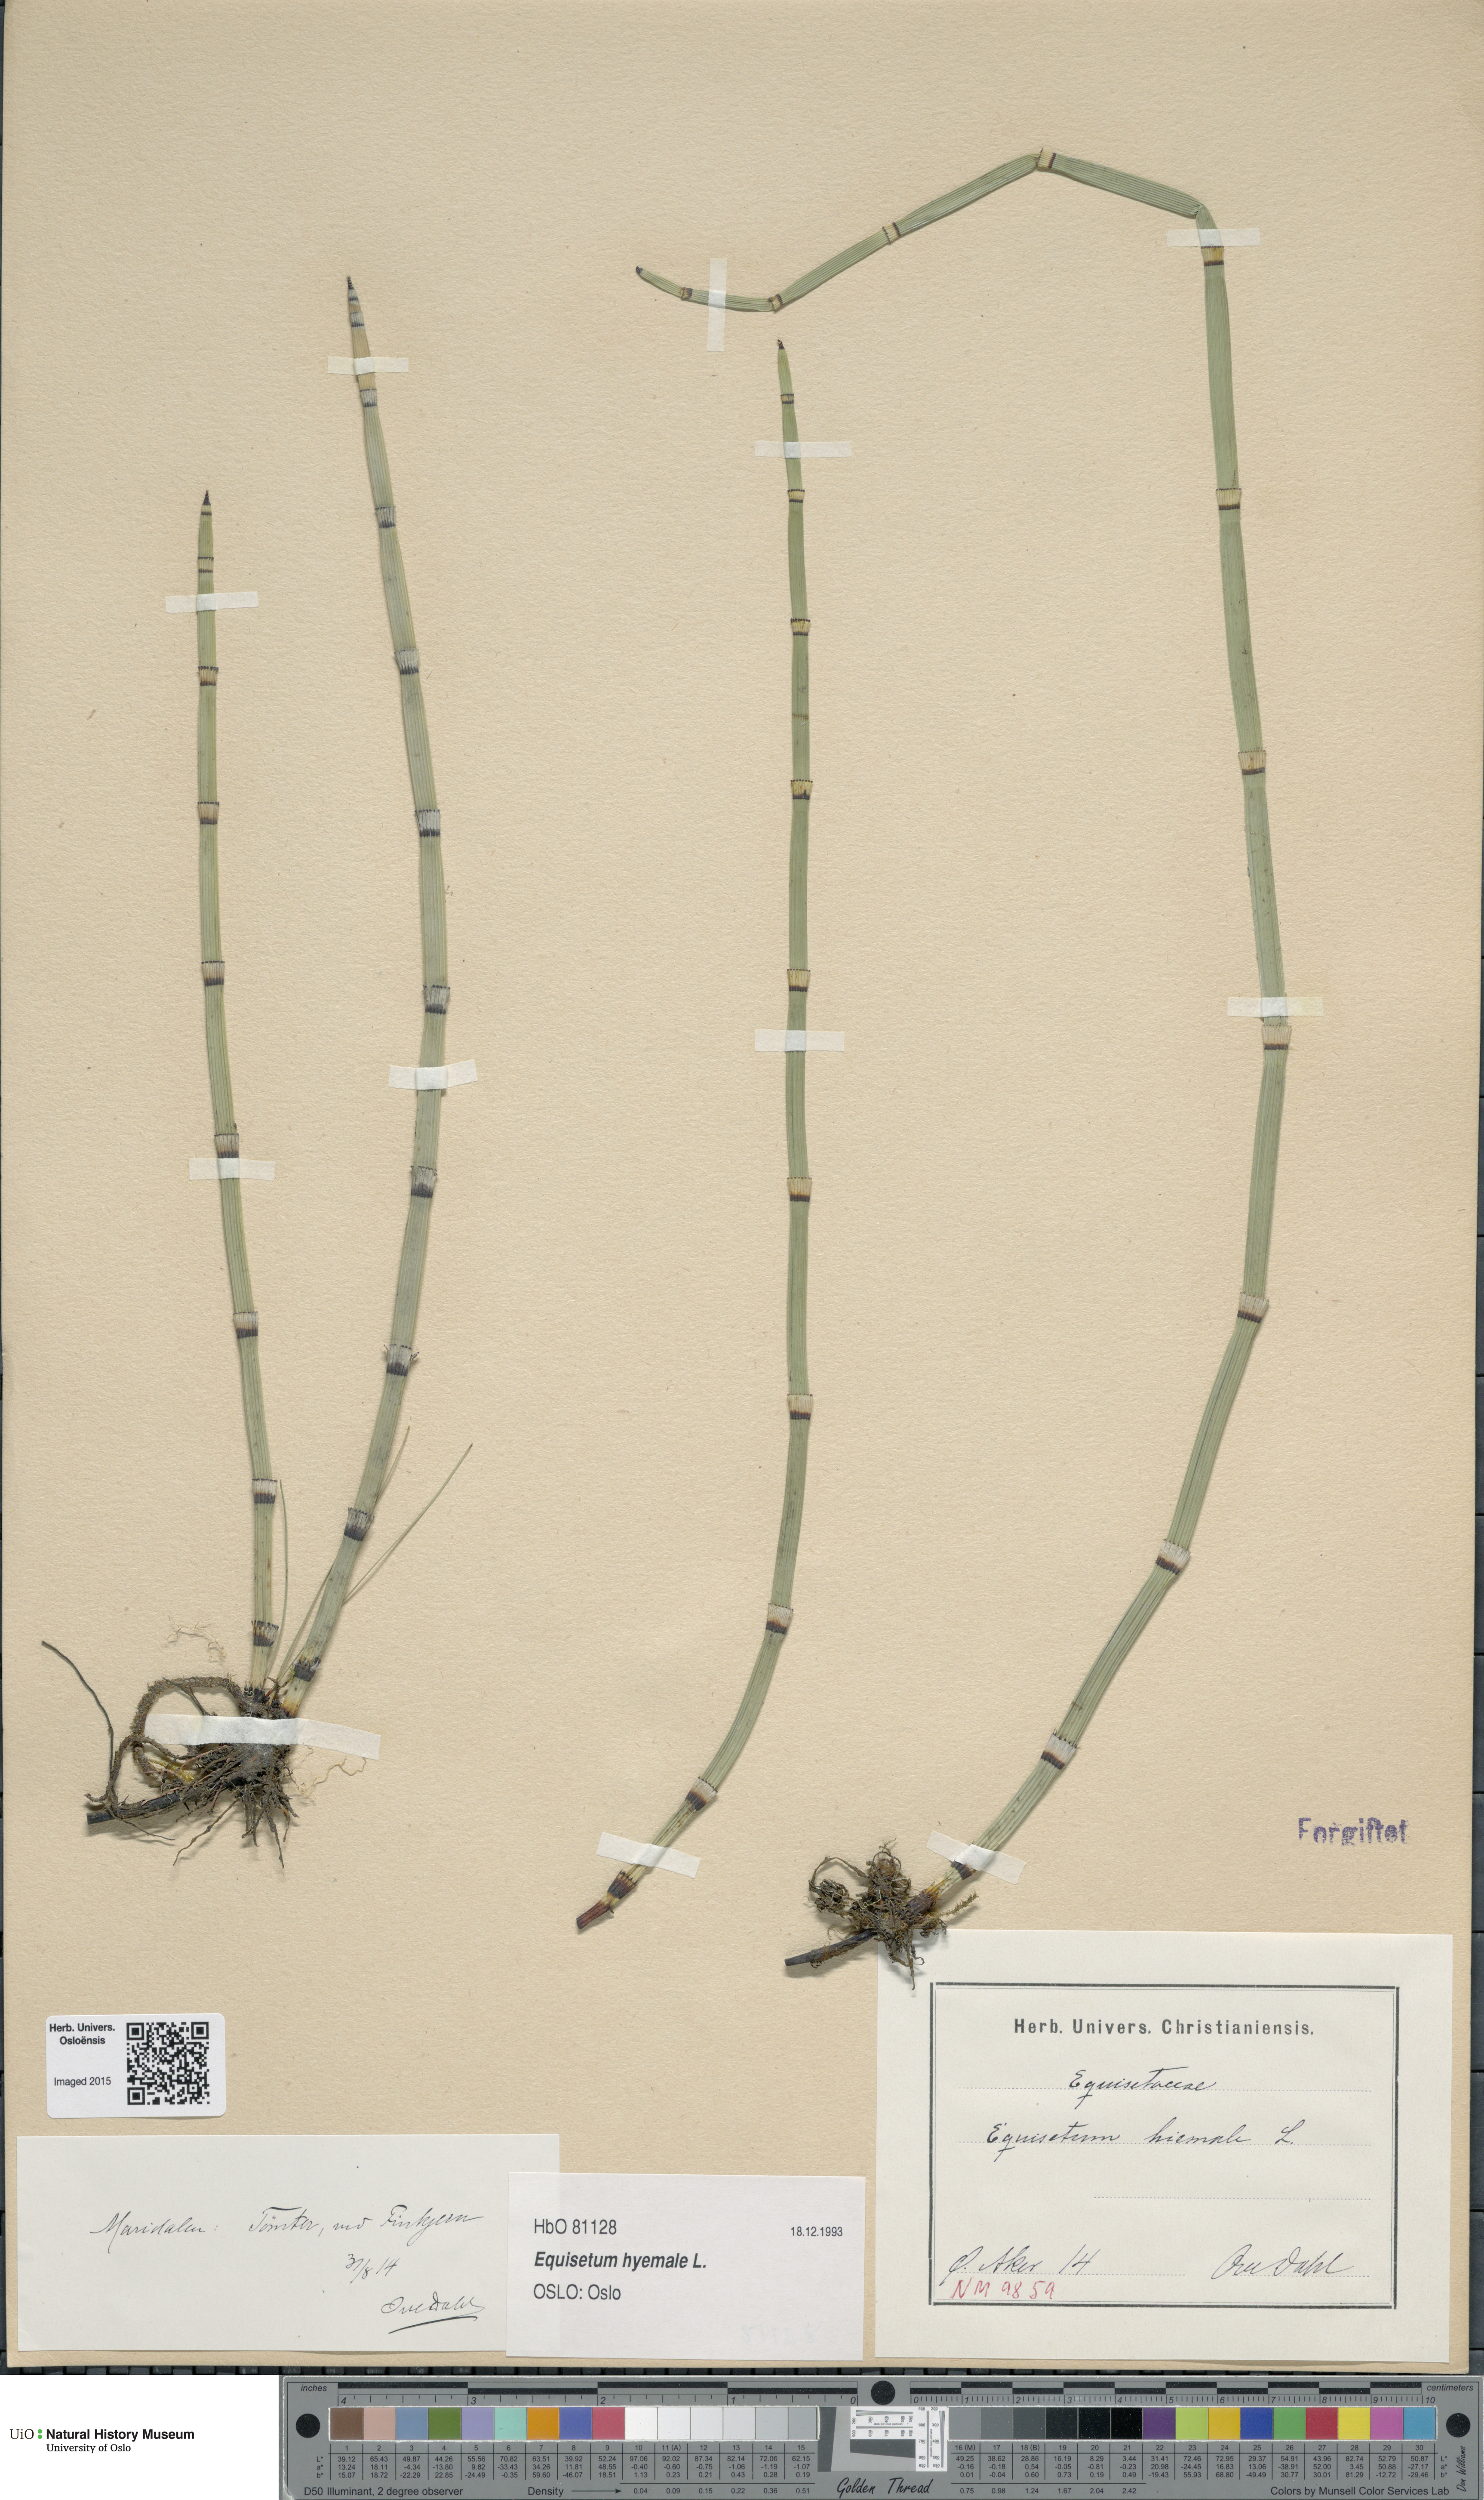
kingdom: Plantae
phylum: Tracheophyta
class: Polypodiopsida
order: Equisetales
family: Equisetaceae
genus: Equisetum
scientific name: Equisetum hyemale
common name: Rough horsetail
